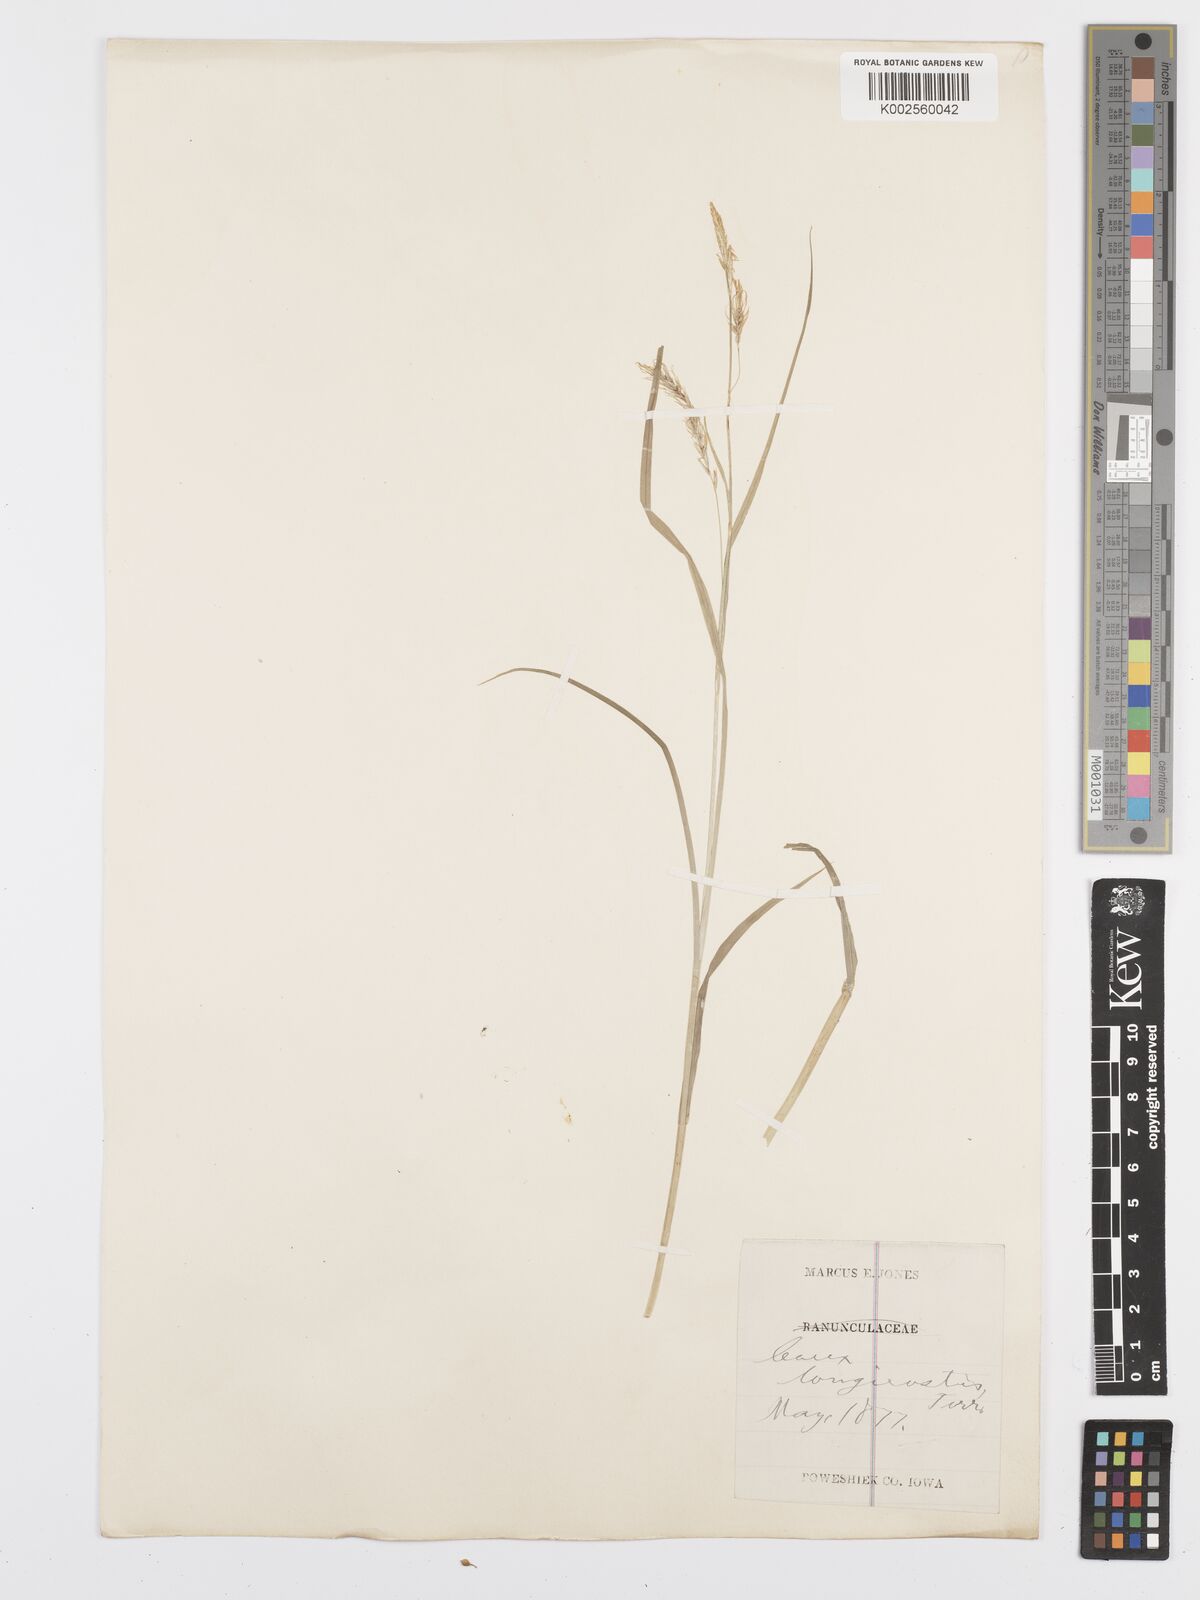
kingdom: Plantae
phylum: Tracheophyta
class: Liliopsida
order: Poales
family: Cyperaceae
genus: Carex
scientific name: Carex sprengelii
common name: Long-beaked sedge
